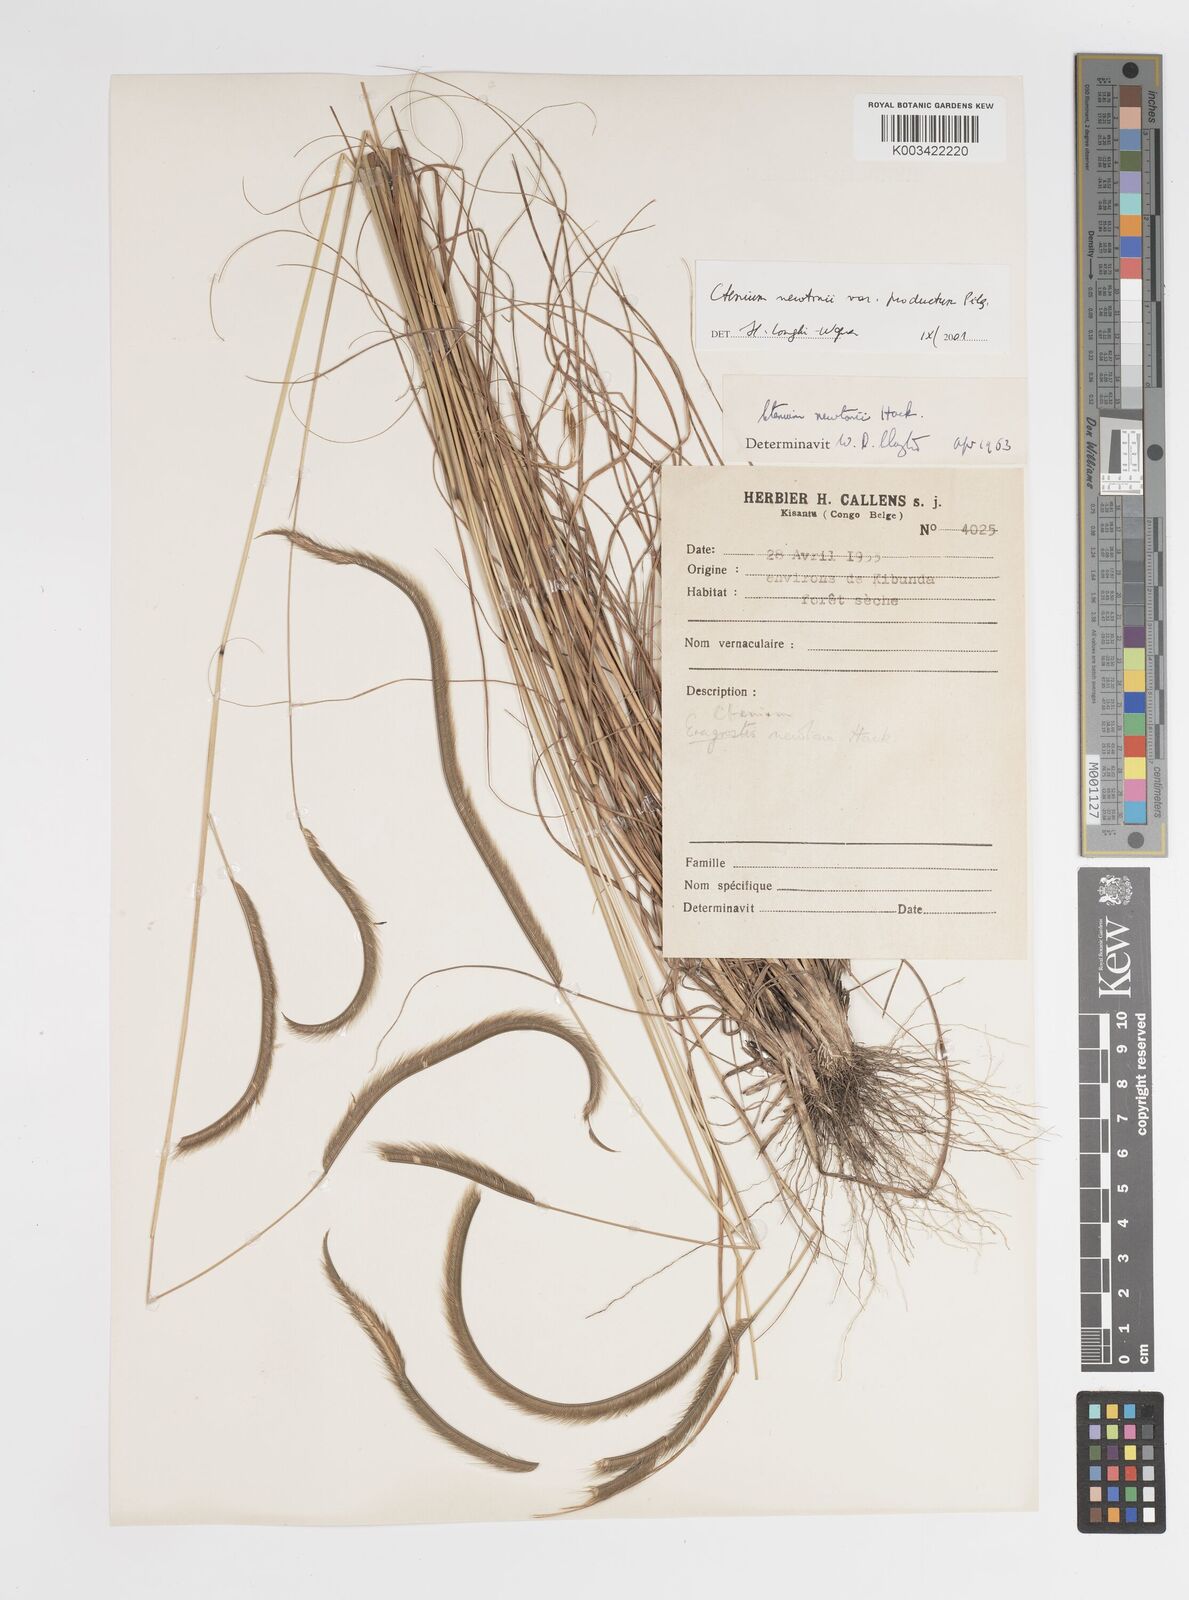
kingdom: Plantae
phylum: Tracheophyta
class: Liliopsida
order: Poales
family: Poaceae
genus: Ctenium
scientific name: Ctenium newtonii
